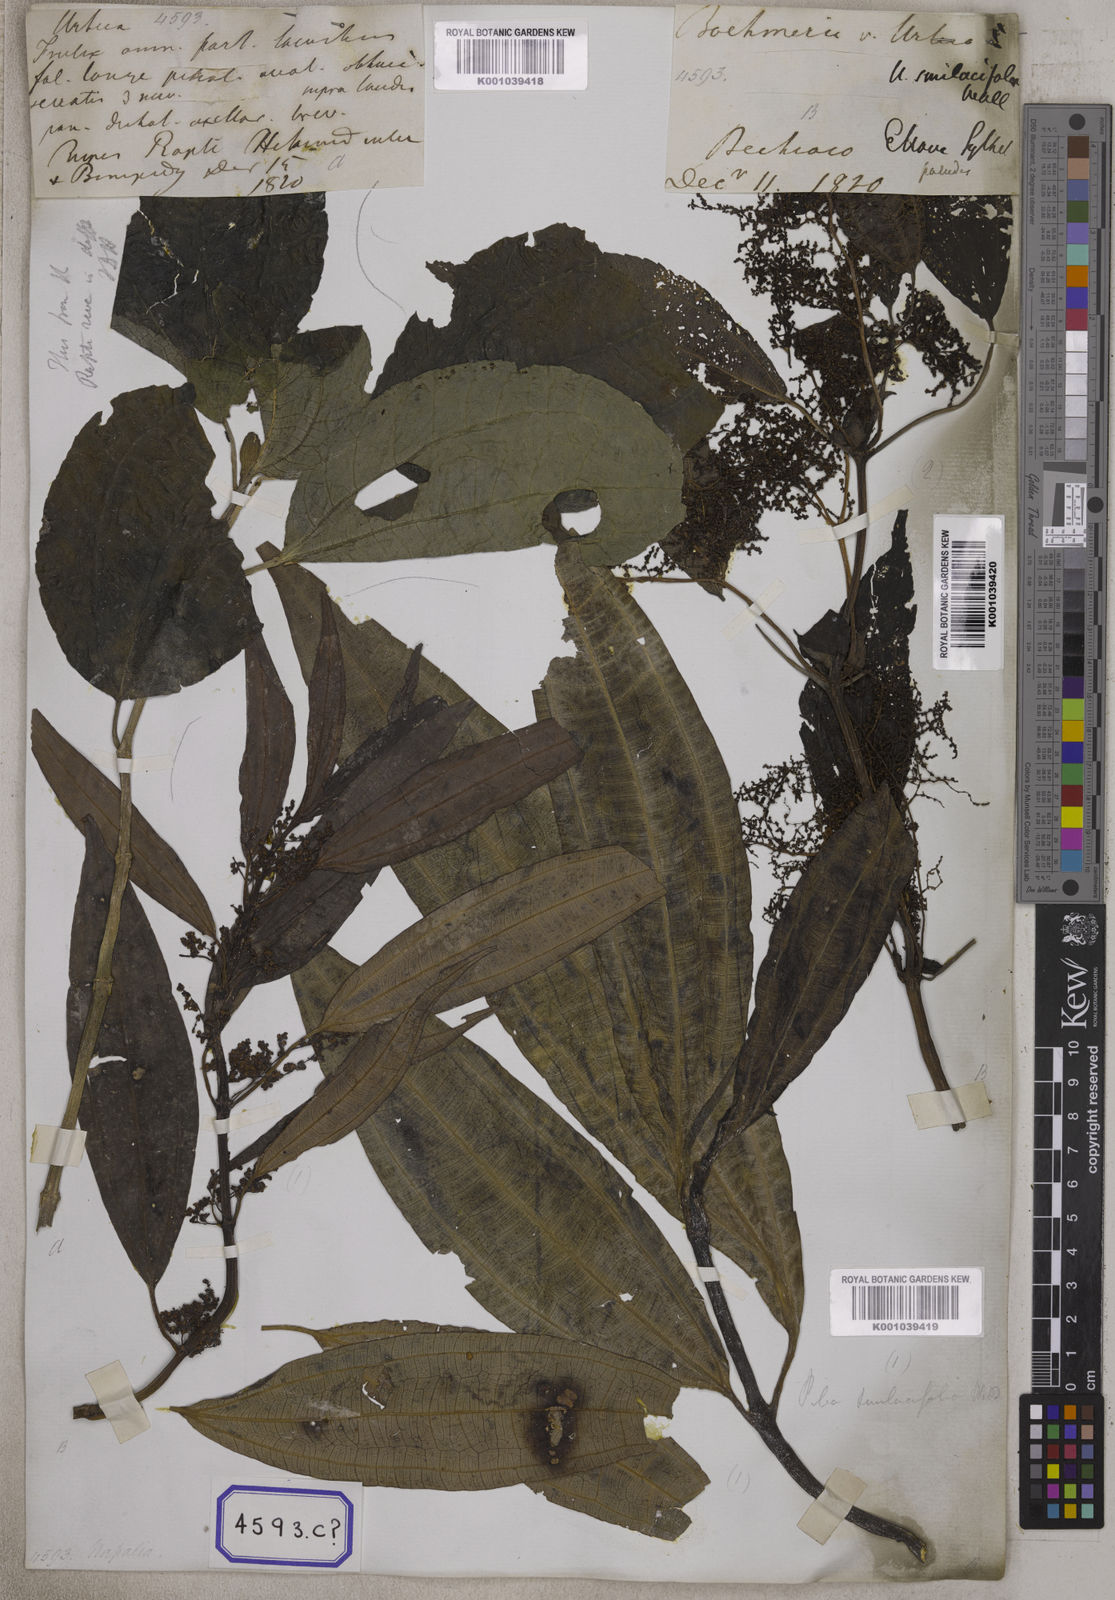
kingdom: Plantae
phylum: Tracheophyta
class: Magnoliopsida
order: Rosales
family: Urticaceae
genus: Urtica
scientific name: Urtica
